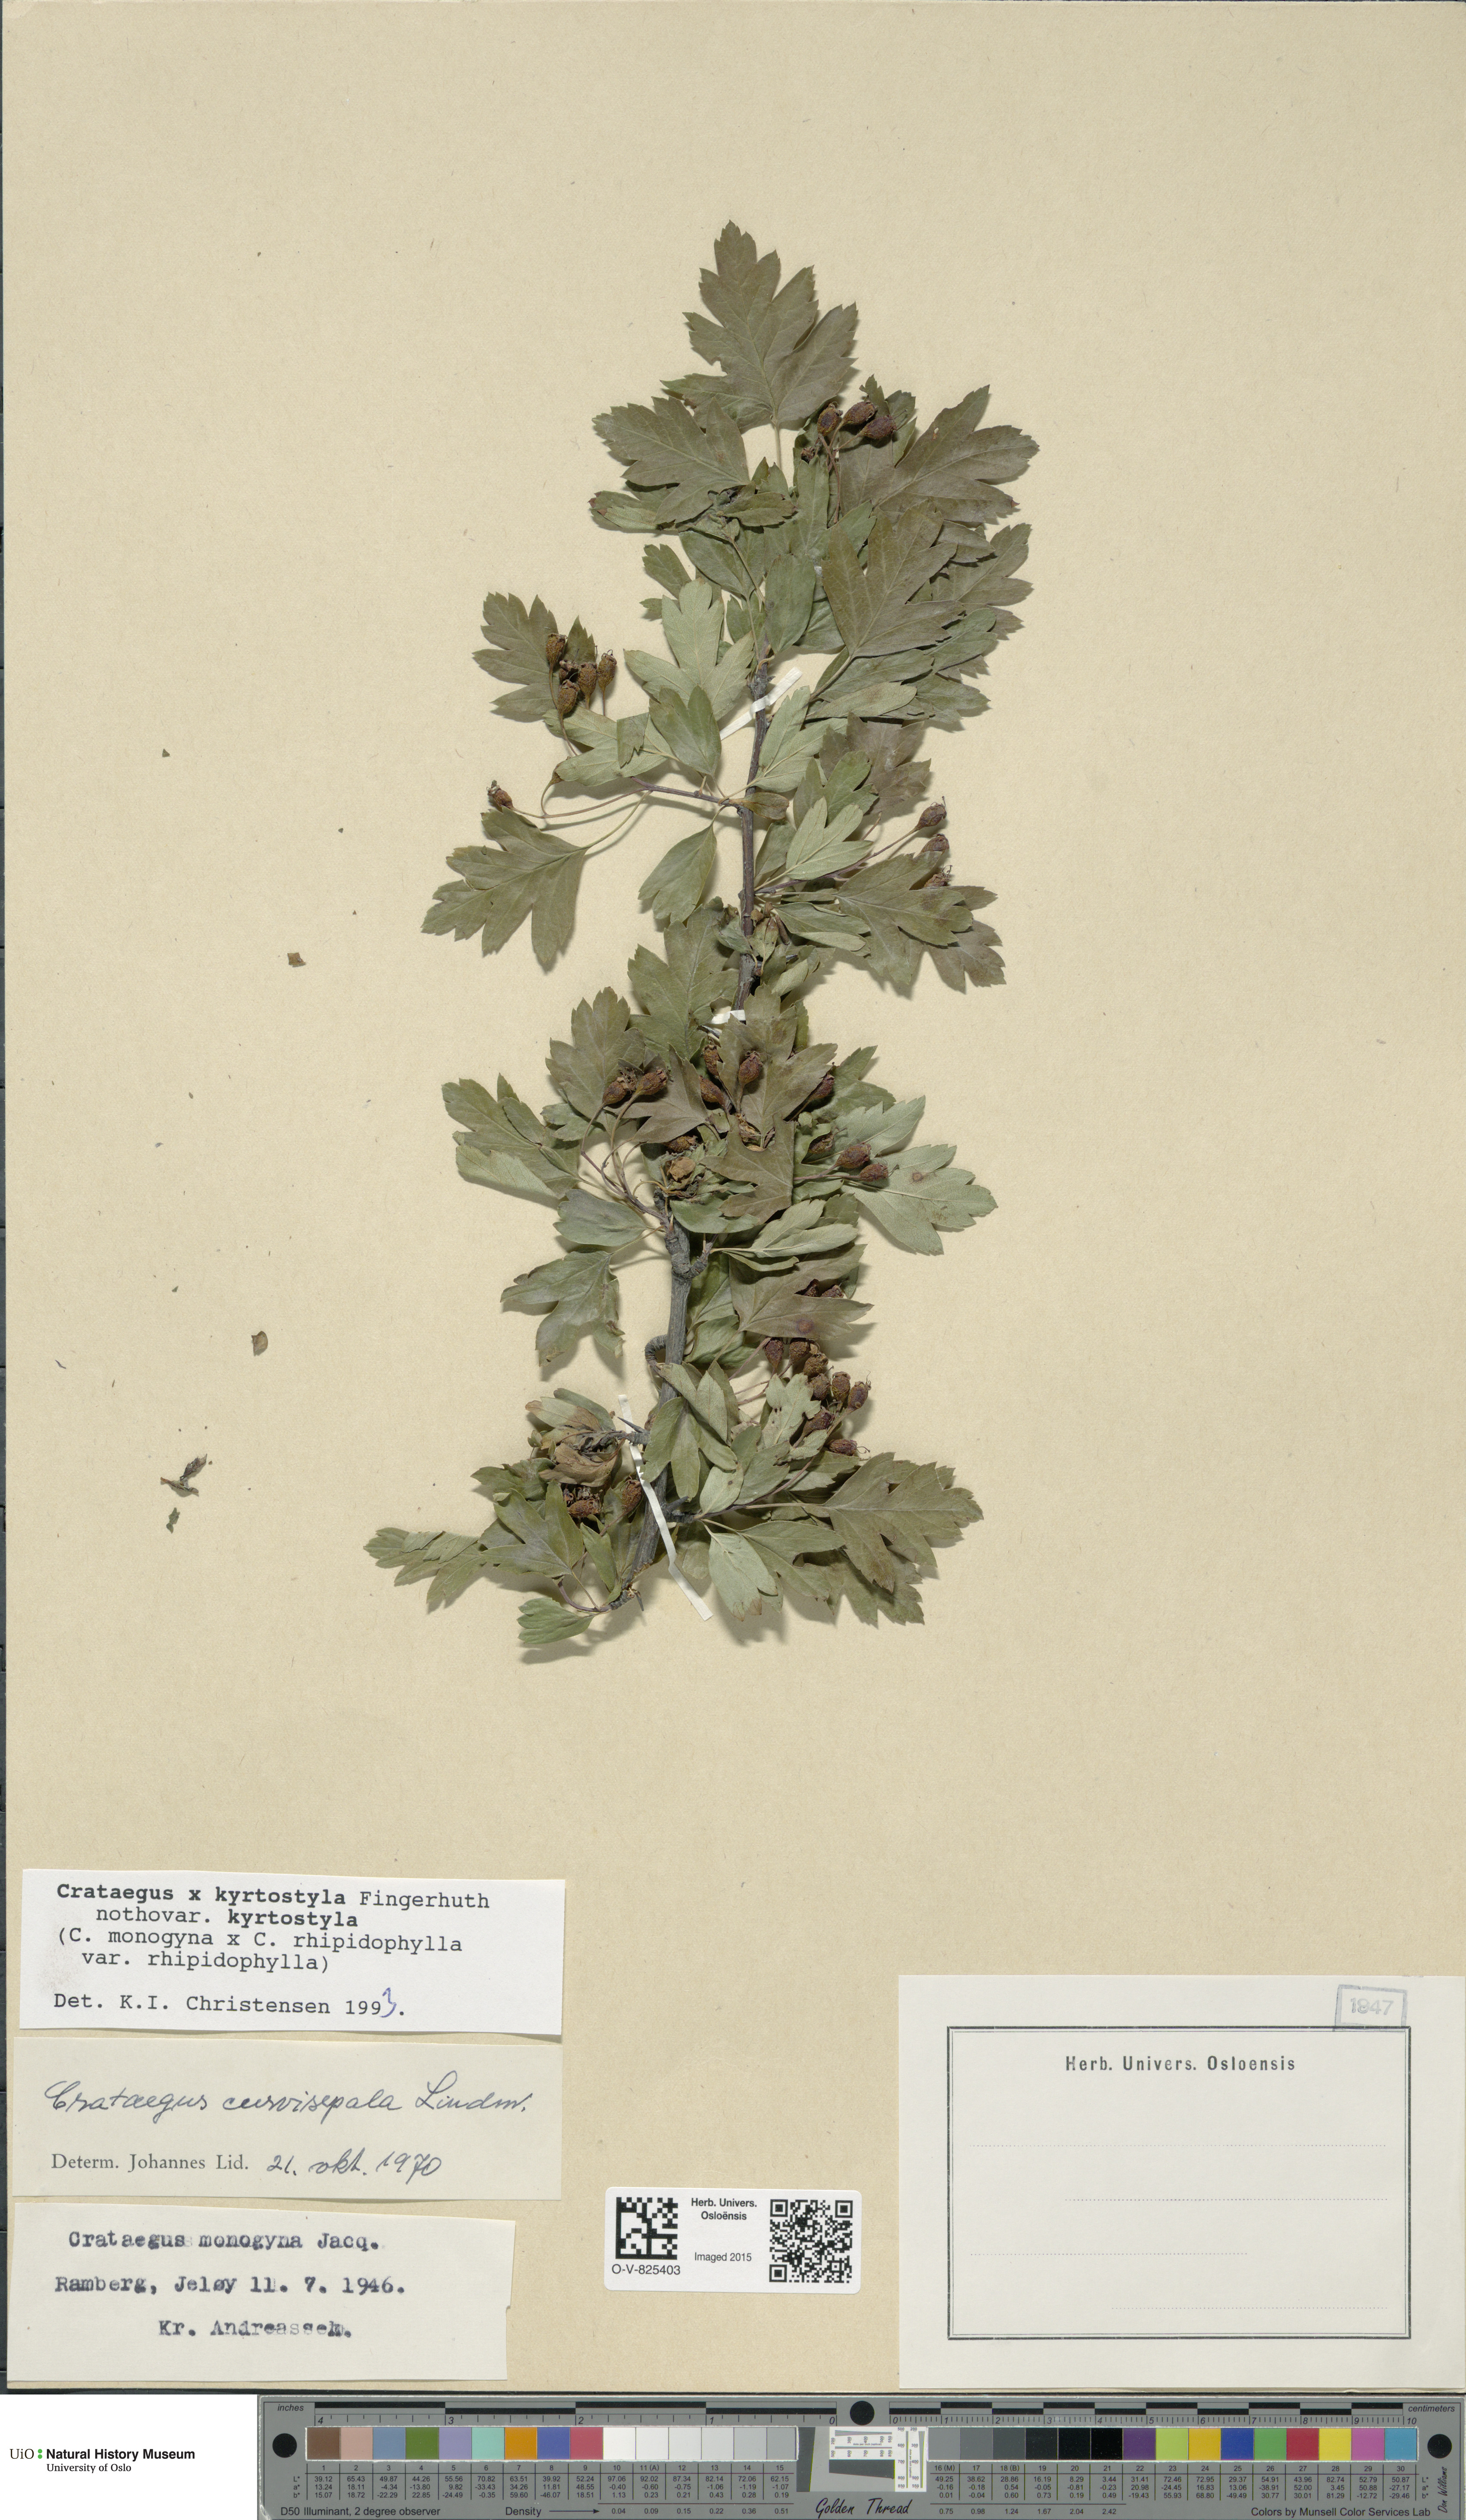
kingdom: Plantae
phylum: Tracheophyta
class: Magnoliopsida
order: Rosales
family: Rosaceae
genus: Crataegus
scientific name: Crataegus kyrtostyla
